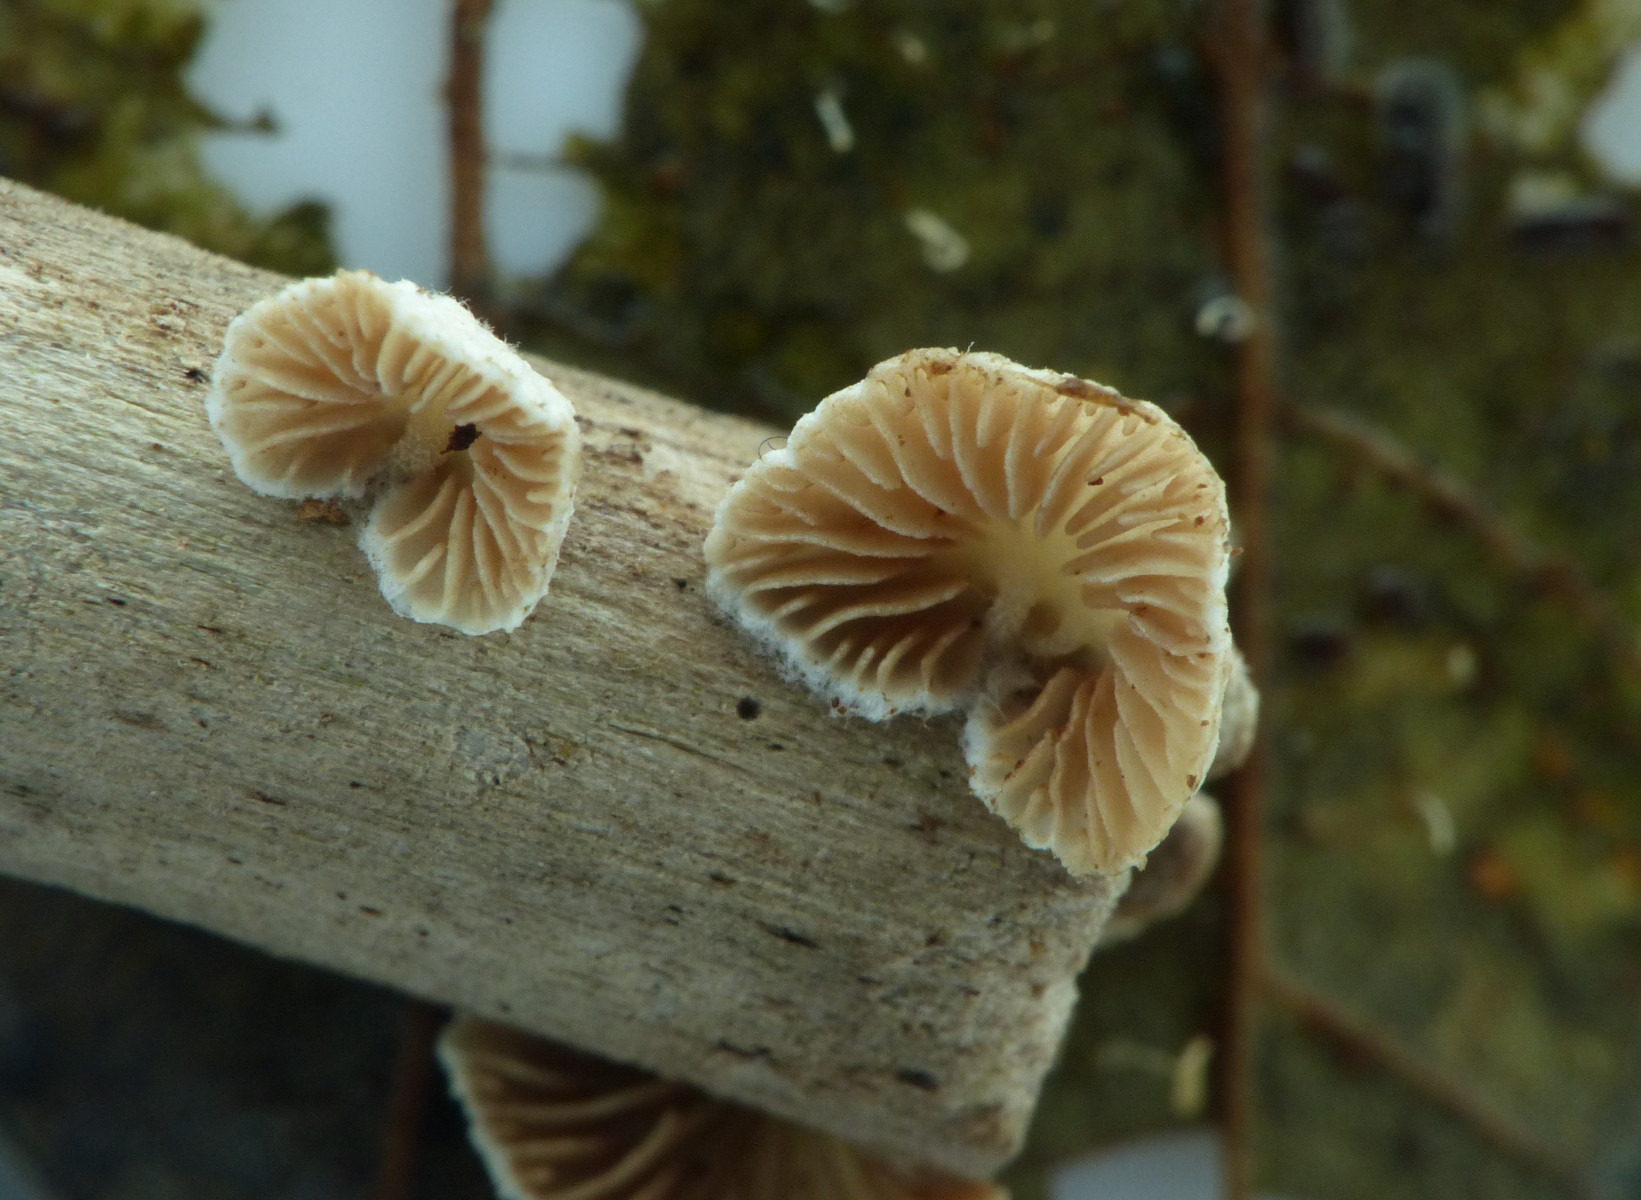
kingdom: Fungi
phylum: Basidiomycota
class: Agaricomycetes
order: Agaricales
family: Crepidotaceae
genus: Crepidotus
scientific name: Crepidotus cesatii
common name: almindelig muslingesvamp
